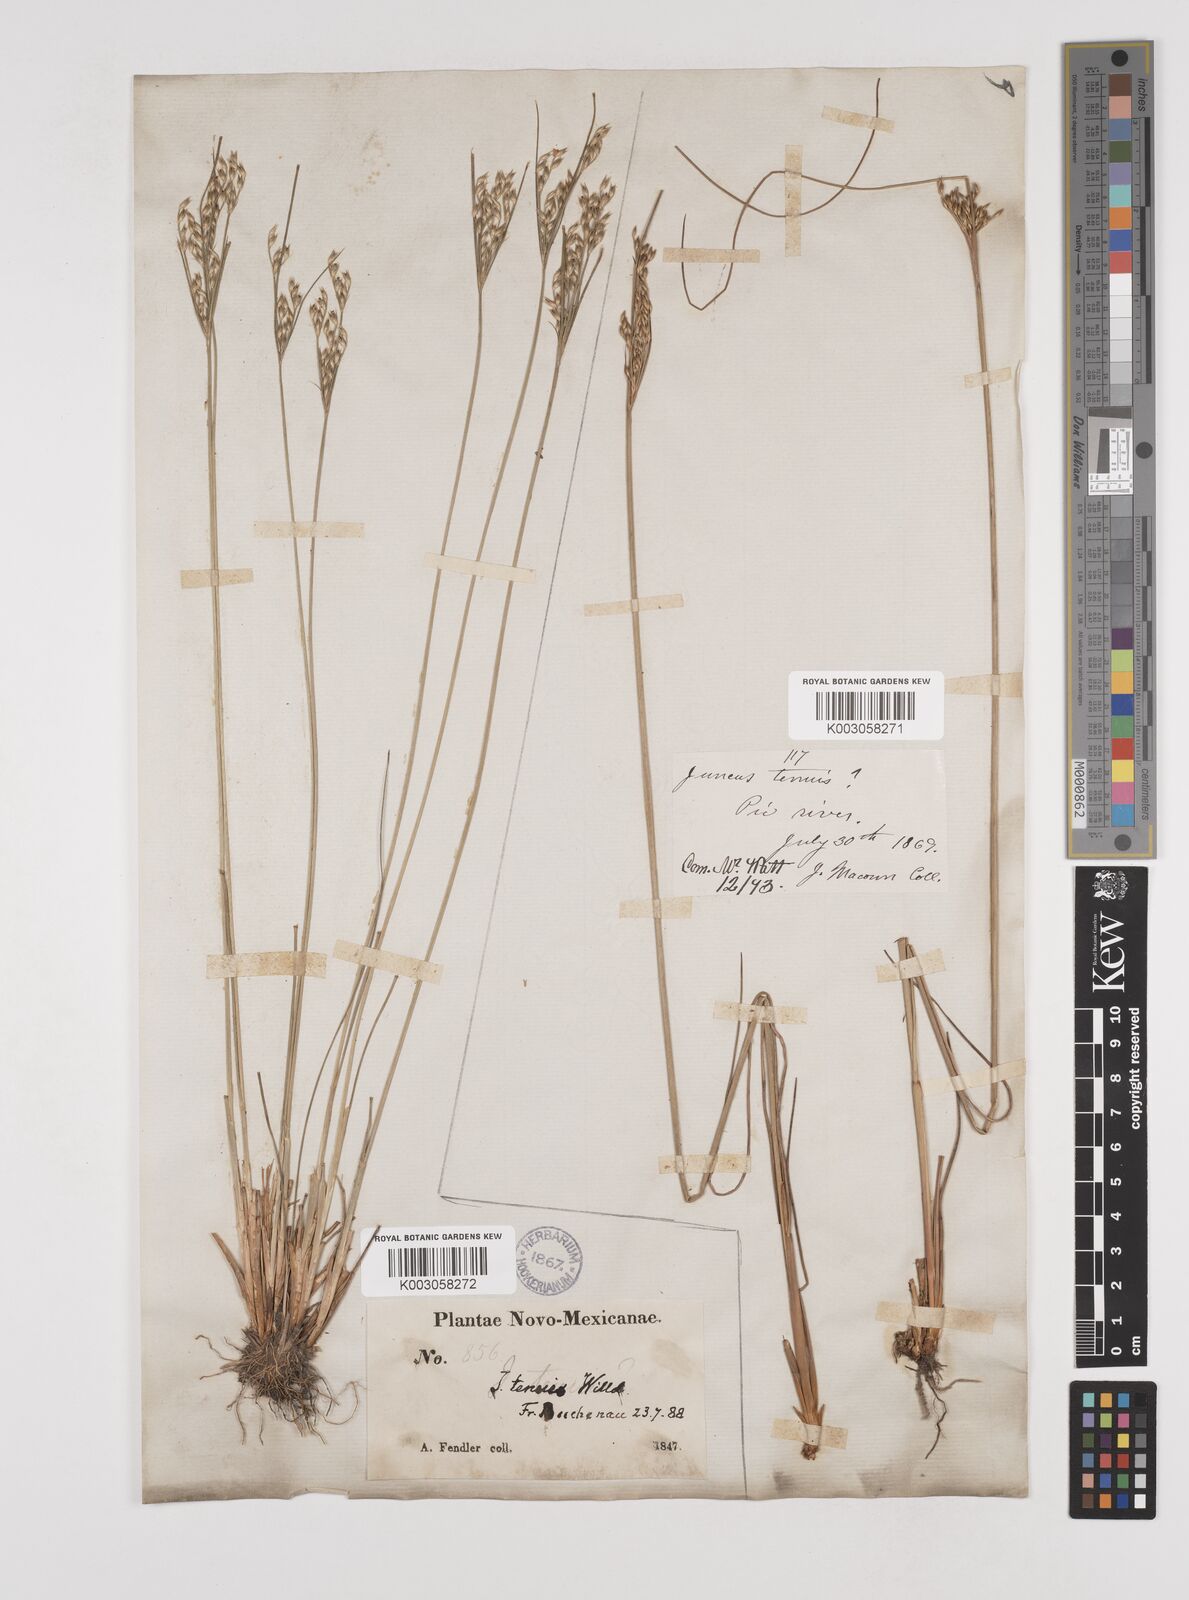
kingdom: Plantae
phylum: Tracheophyta
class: Liliopsida
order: Poales
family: Juncaceae
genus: Juncus
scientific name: Juncus
